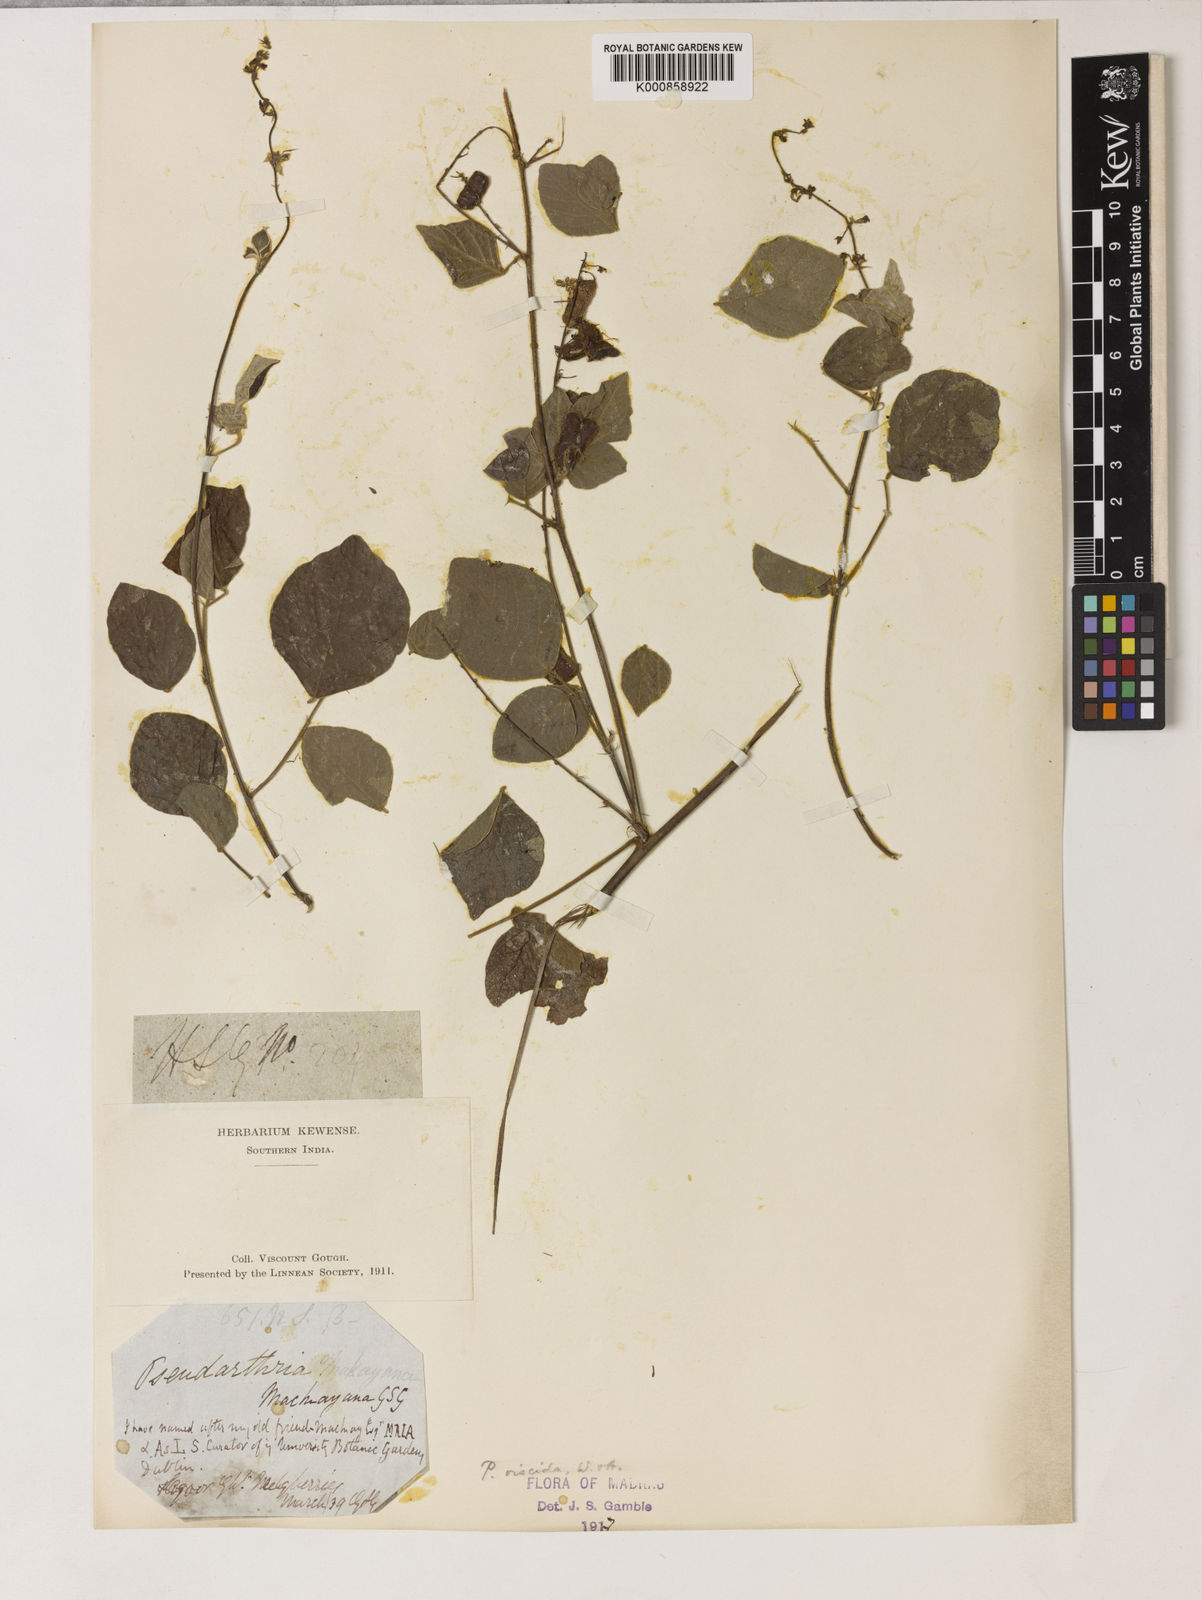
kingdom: Plantae
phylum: Tracheophyta
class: Magnoliopsida
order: Fabales
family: Fabaceae
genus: Pseudarthria
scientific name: Pseudarthria viscida
